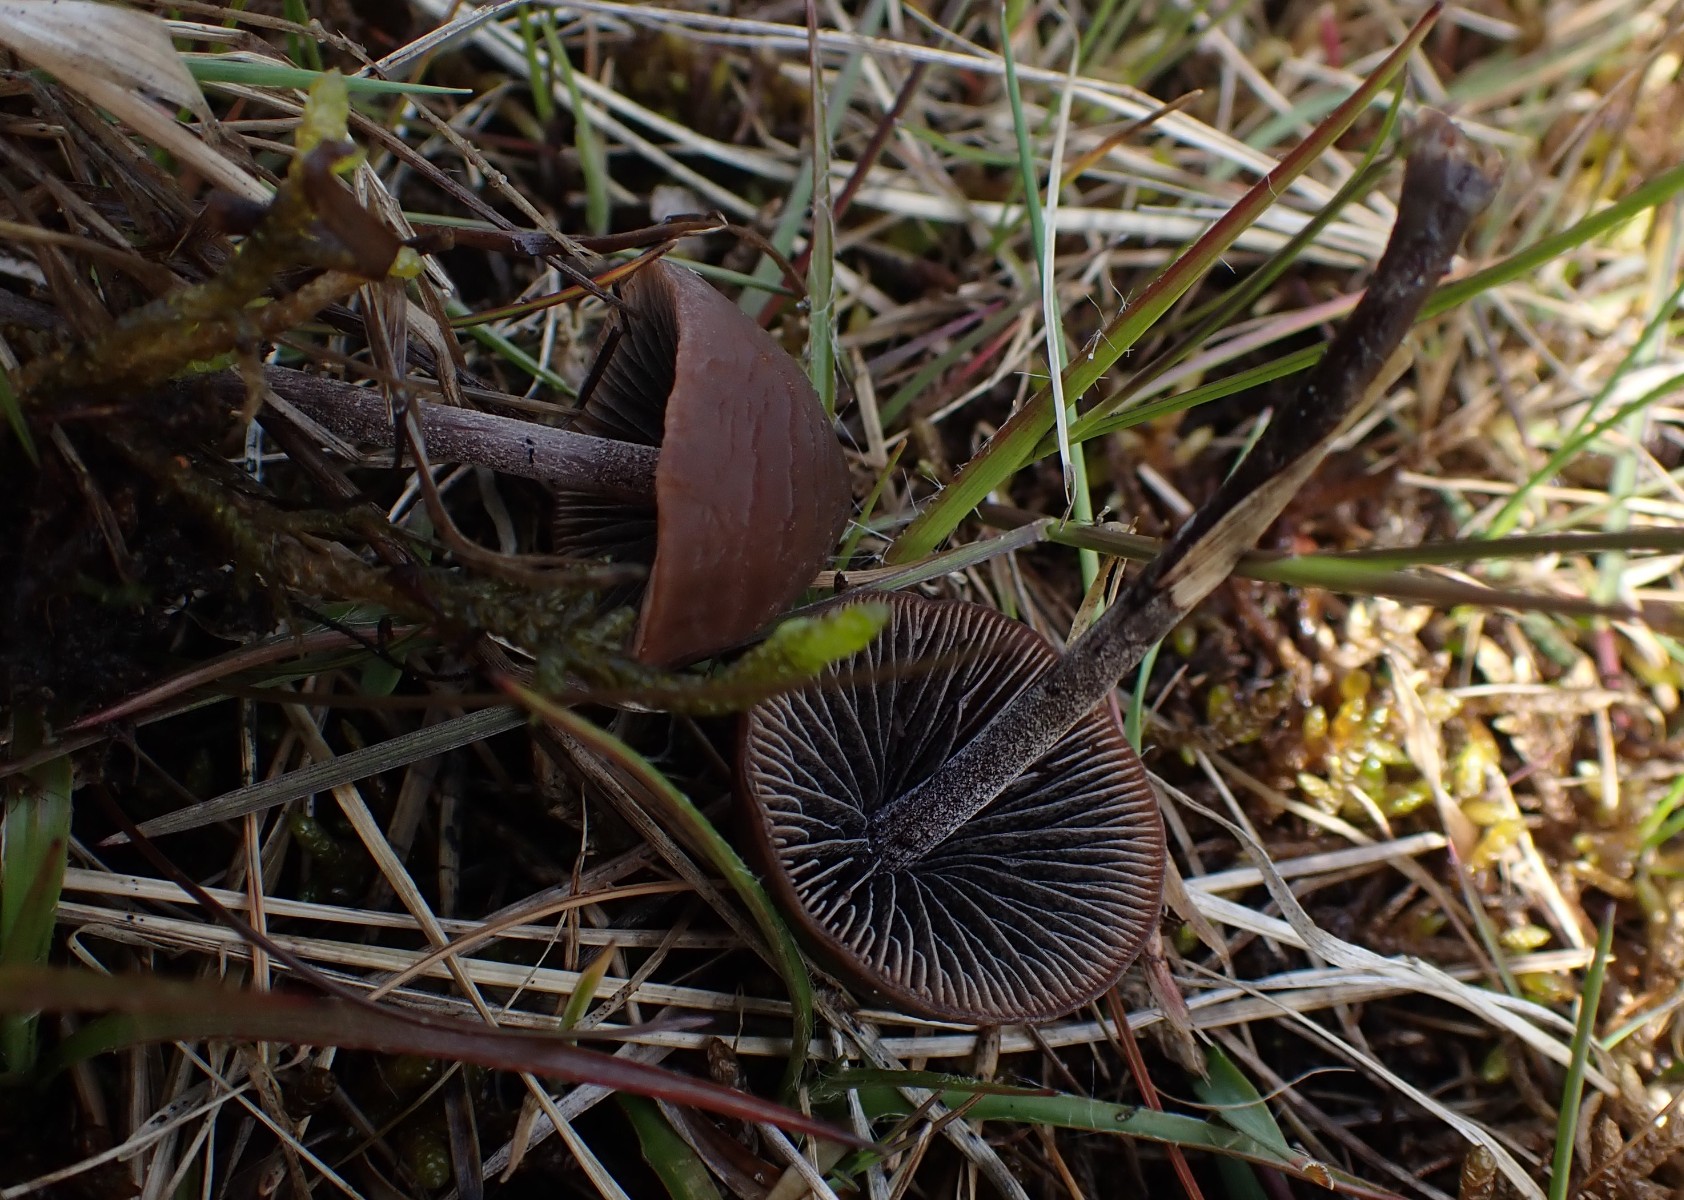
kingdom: Fungi
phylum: Basidiomycota
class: Agaricomycetes
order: Agaricales
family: Bolbitiaceae
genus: Panaeolus
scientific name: Panaeolus
